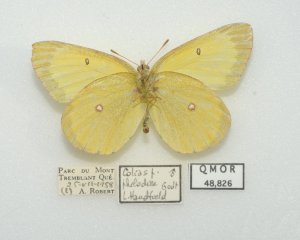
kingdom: Animalia
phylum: Arthropoda
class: Insecta
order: Lepidoptera
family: Pieridae
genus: Colias
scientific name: Colias philodice
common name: Clouded Sulphur
